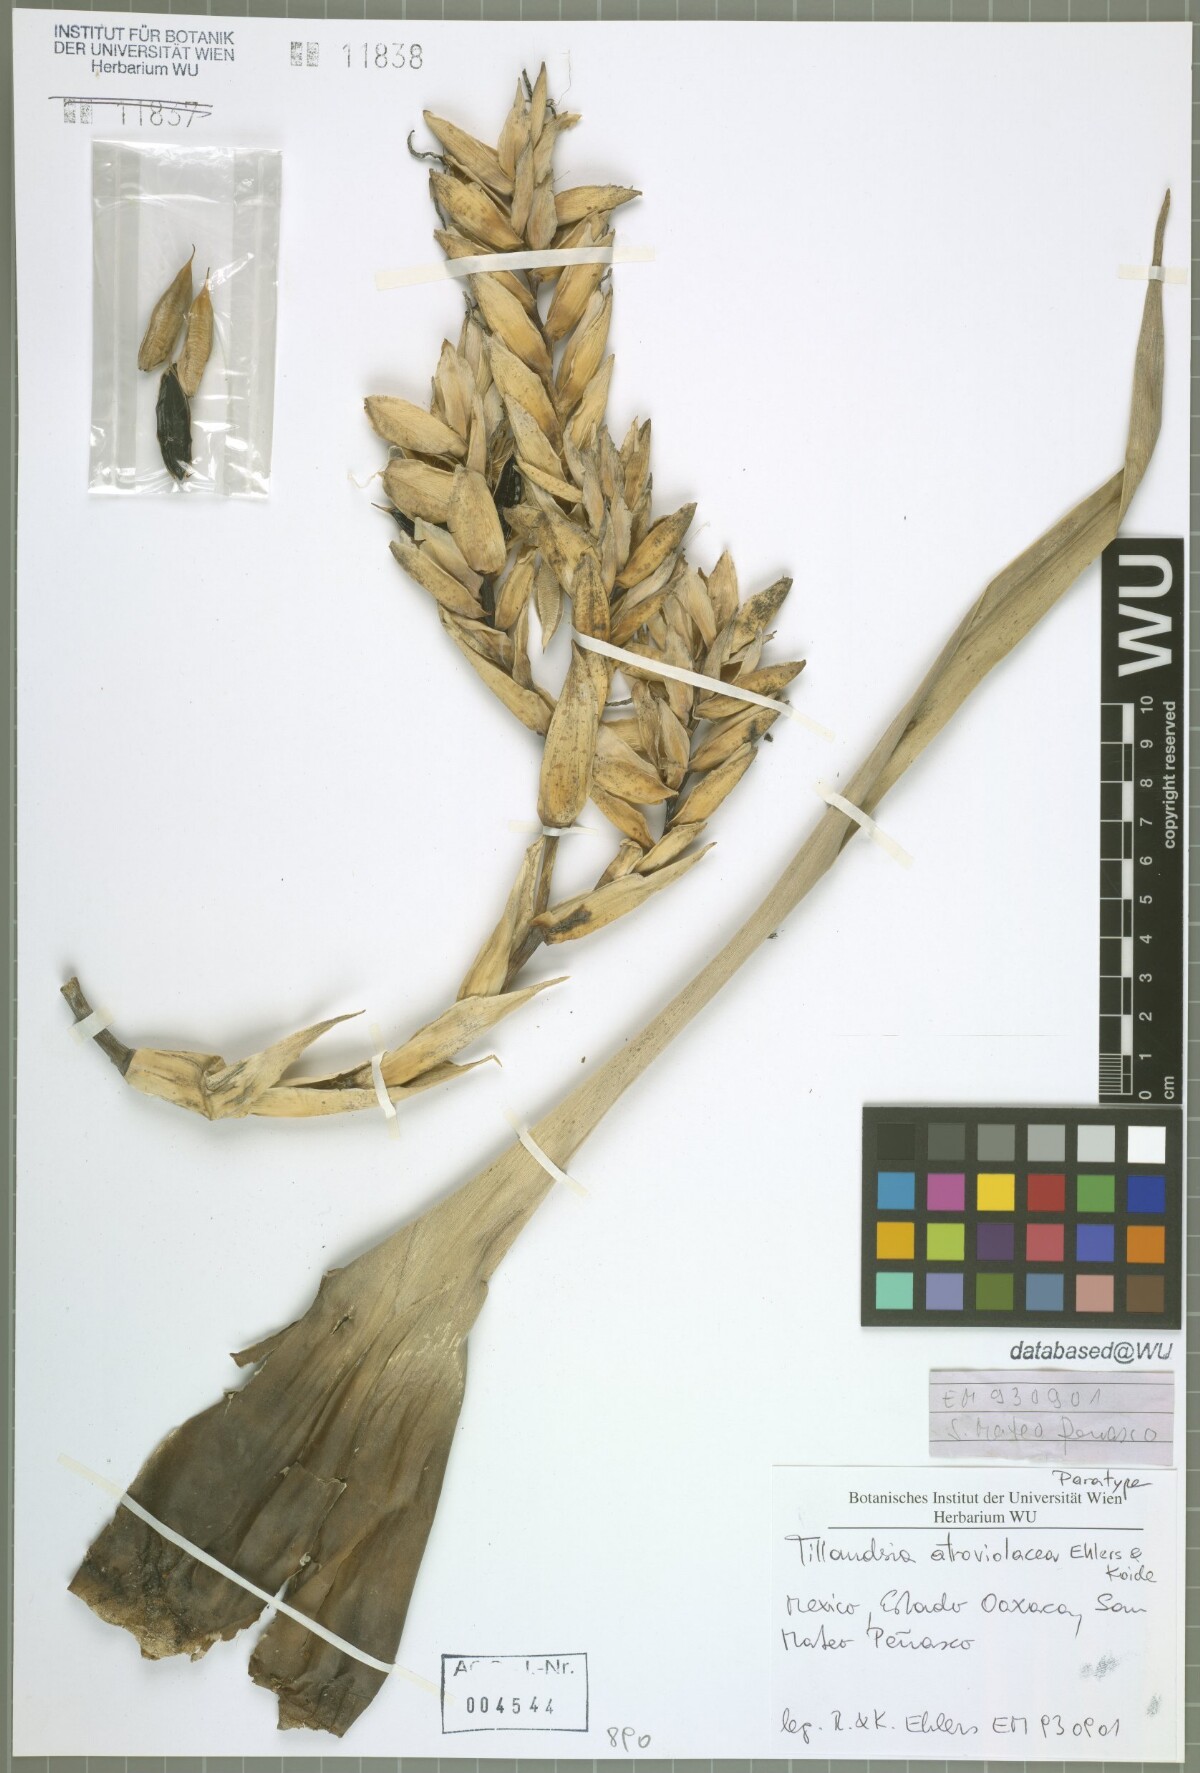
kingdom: Plantae
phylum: Tracheophyta
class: Liliopsida
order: Poales
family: Bromeliaceae
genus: Tillandsia
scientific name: Tillandsia atroviolacea
